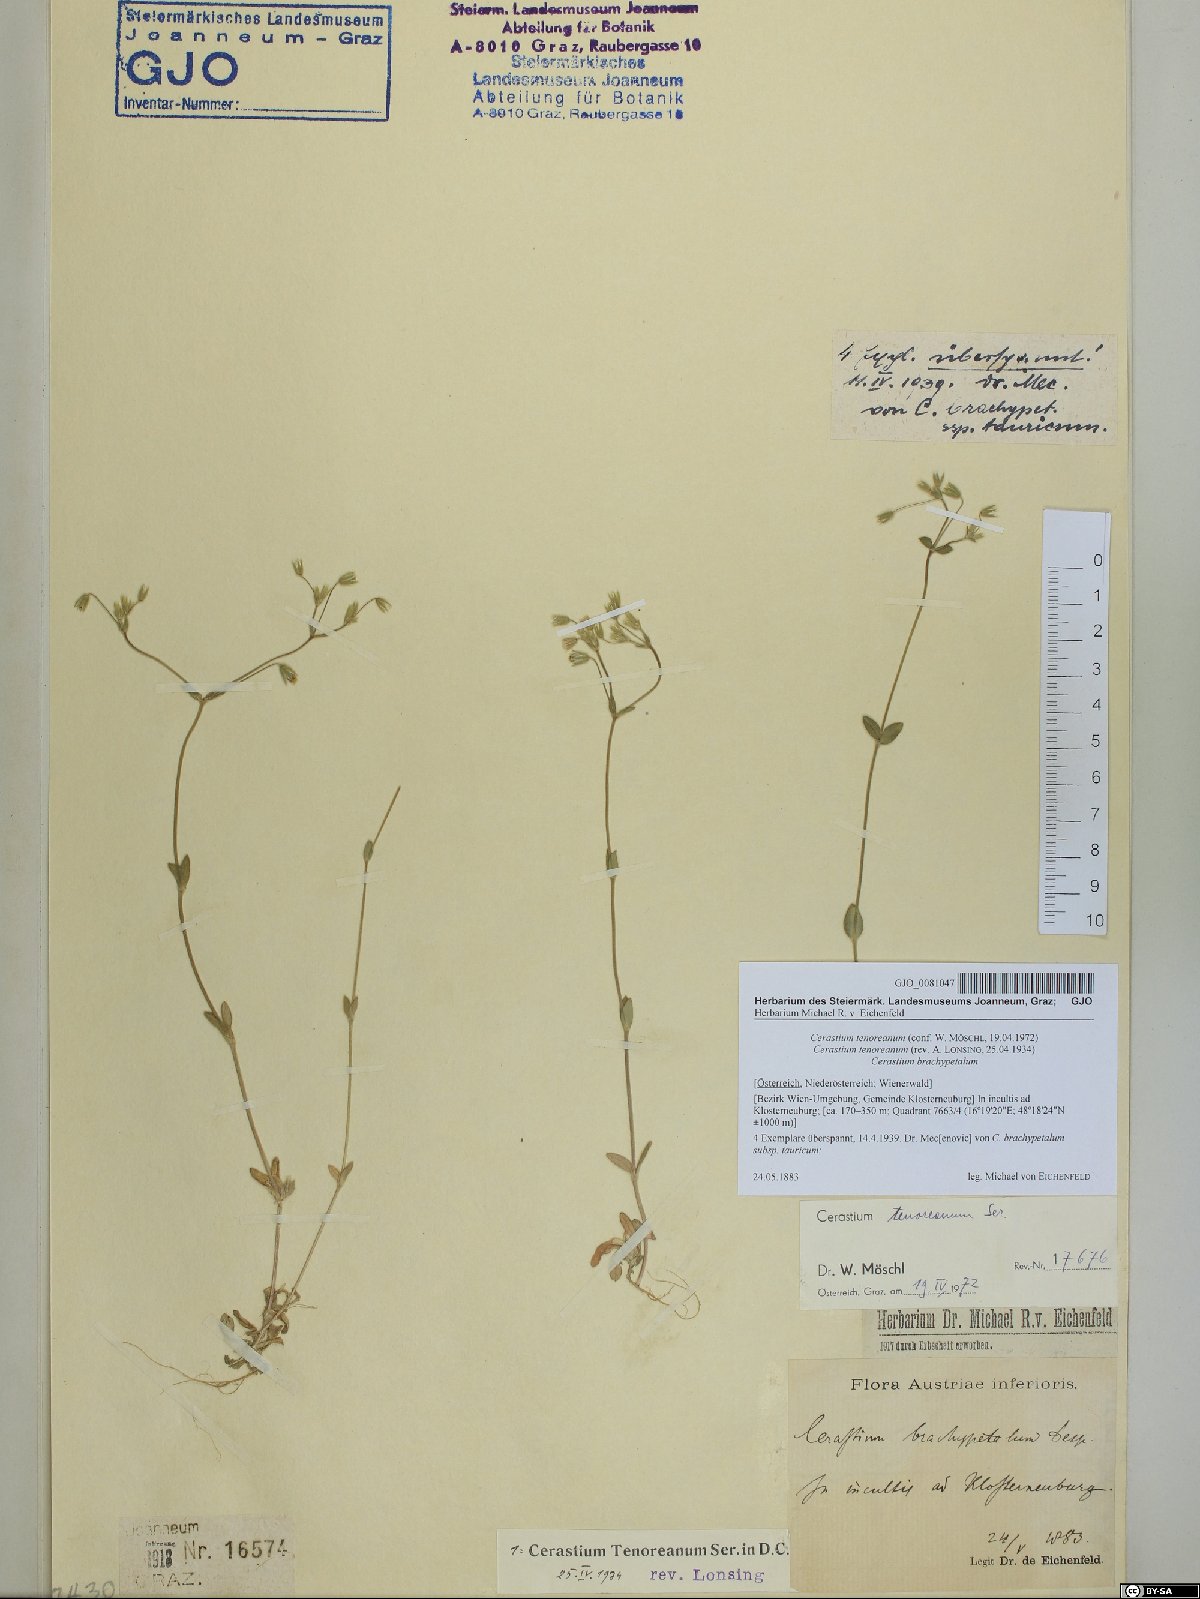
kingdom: Plantae
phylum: Tracheophyta
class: Magnoliopsida
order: Caryophyllales
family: Caryophyllaceae
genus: Cerastium
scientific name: Cerastium tenoreanum
